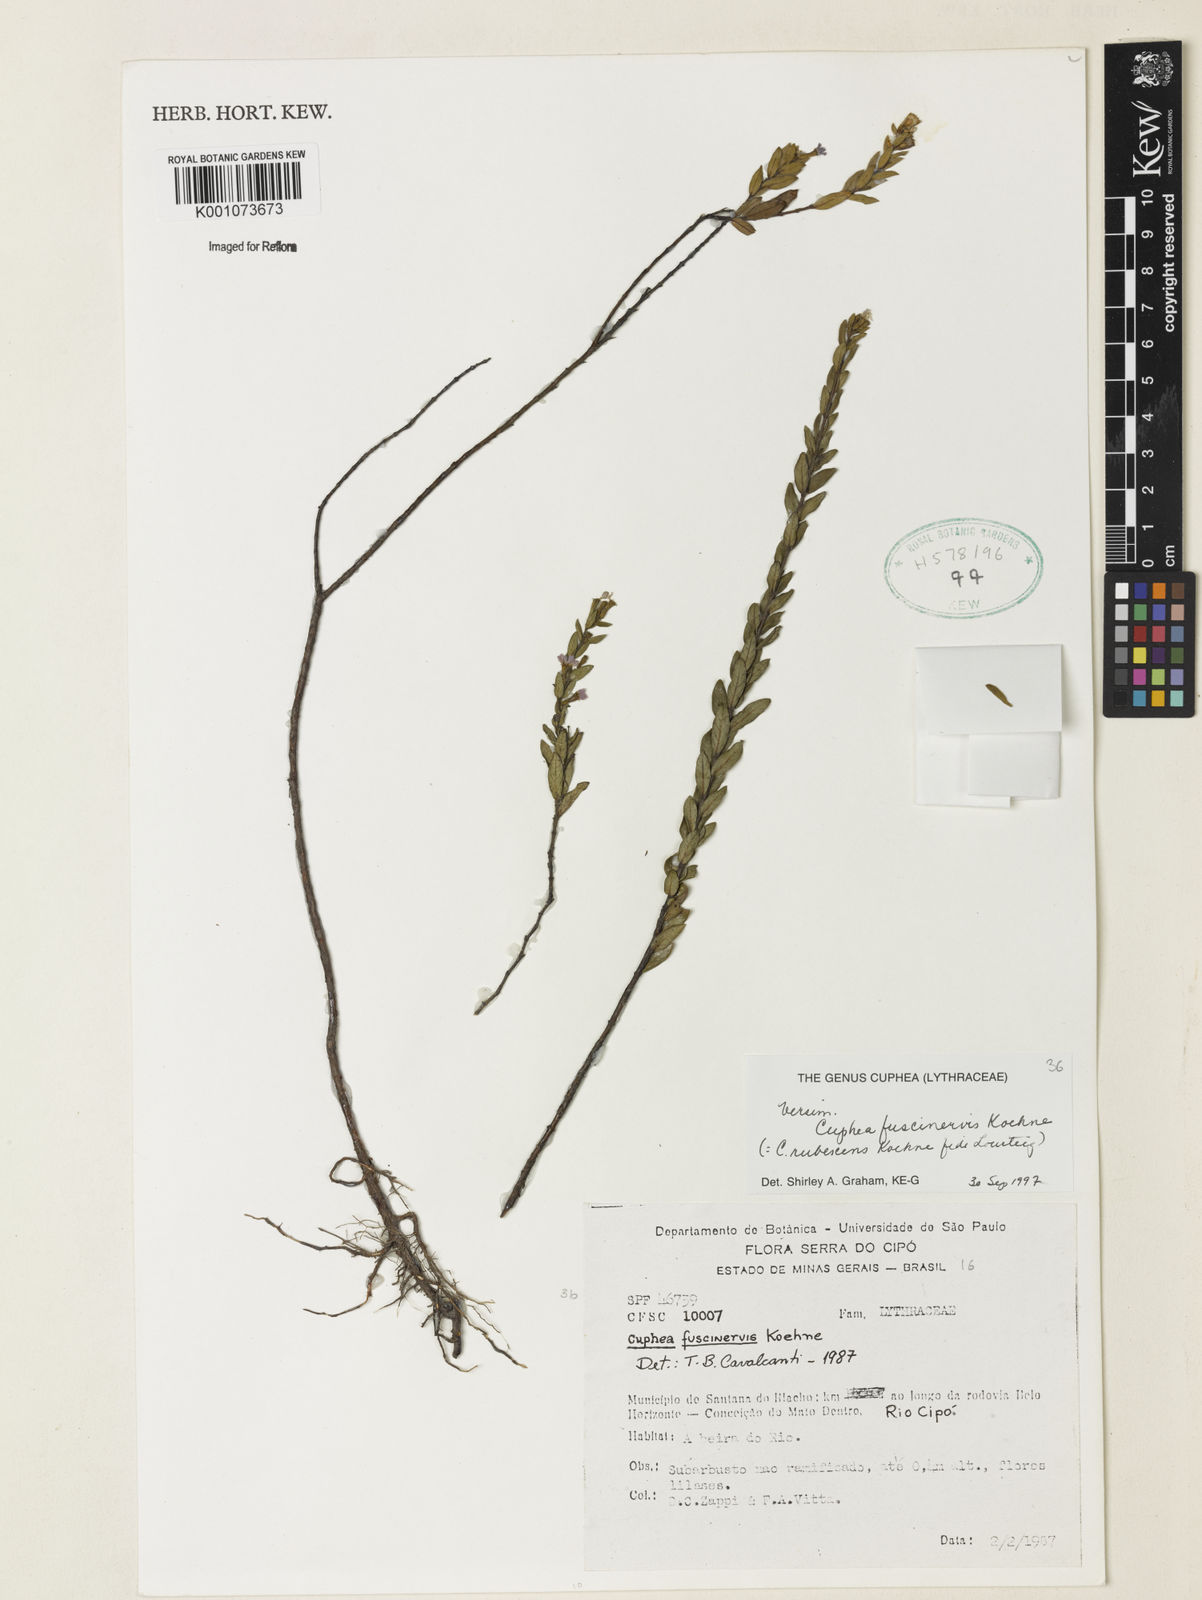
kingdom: Plantae
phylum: Tracheophyta
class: Magnoliopsida
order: Myrtales
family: Lythraceae
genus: Cuphea
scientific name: Cuphea calophylla
